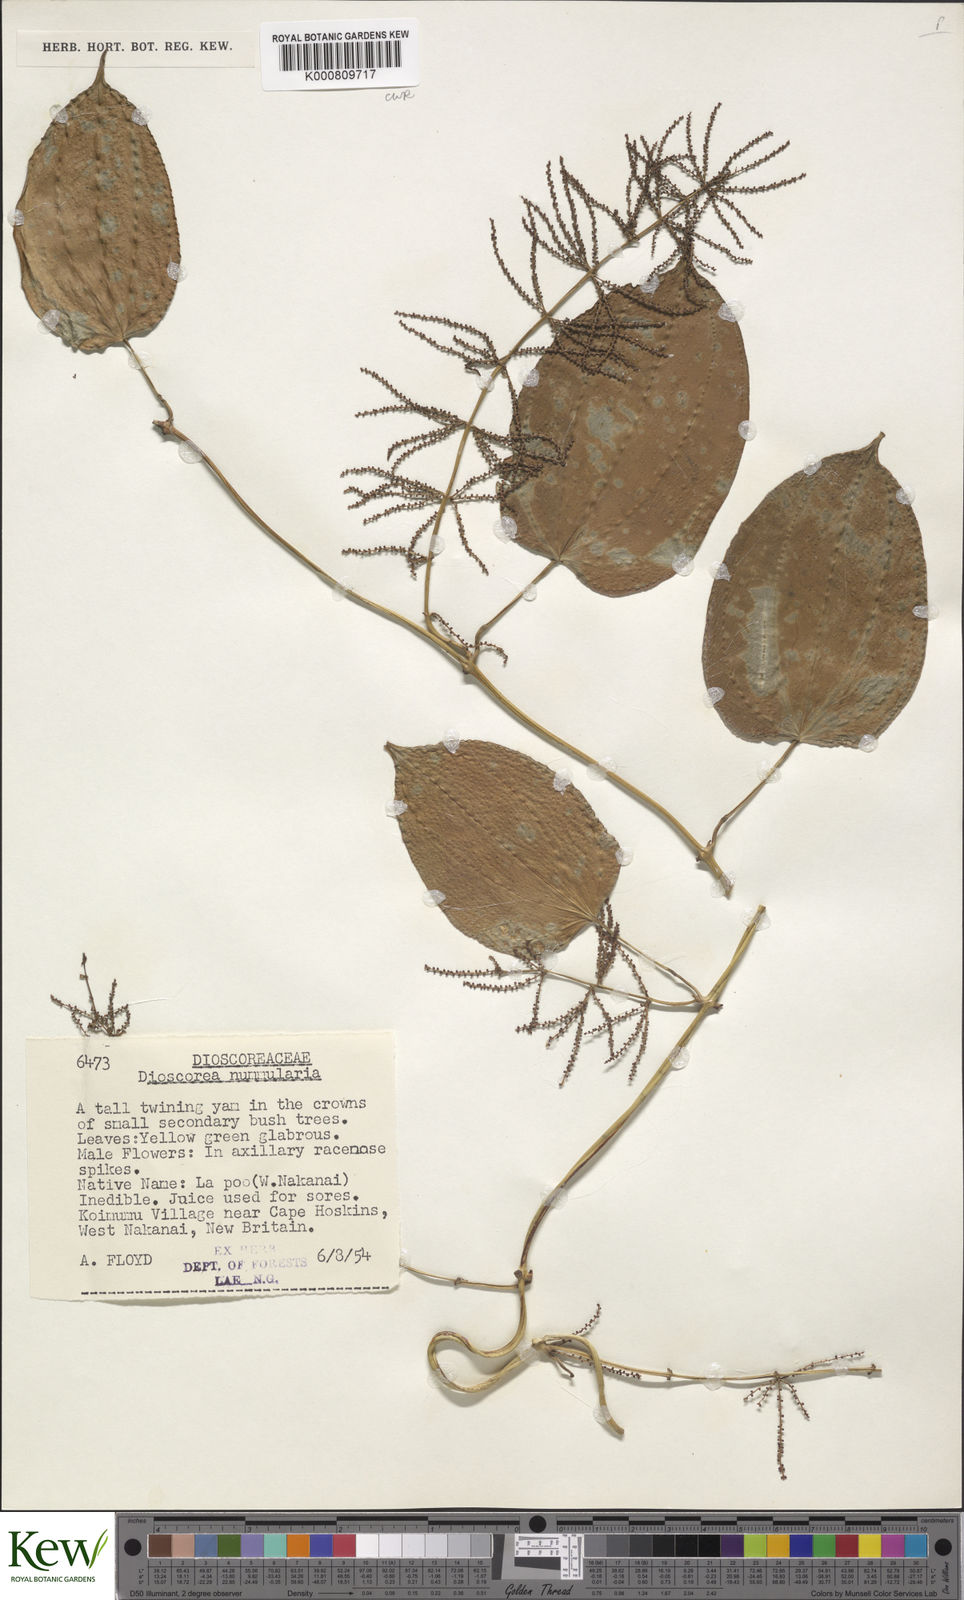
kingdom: Plantae
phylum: Tracheophyta
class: Liliopsida
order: Dioscoreales
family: Dioscoreaceae
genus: Dioscorea
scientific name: Dioscorea nummularia
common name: Pacific yam
